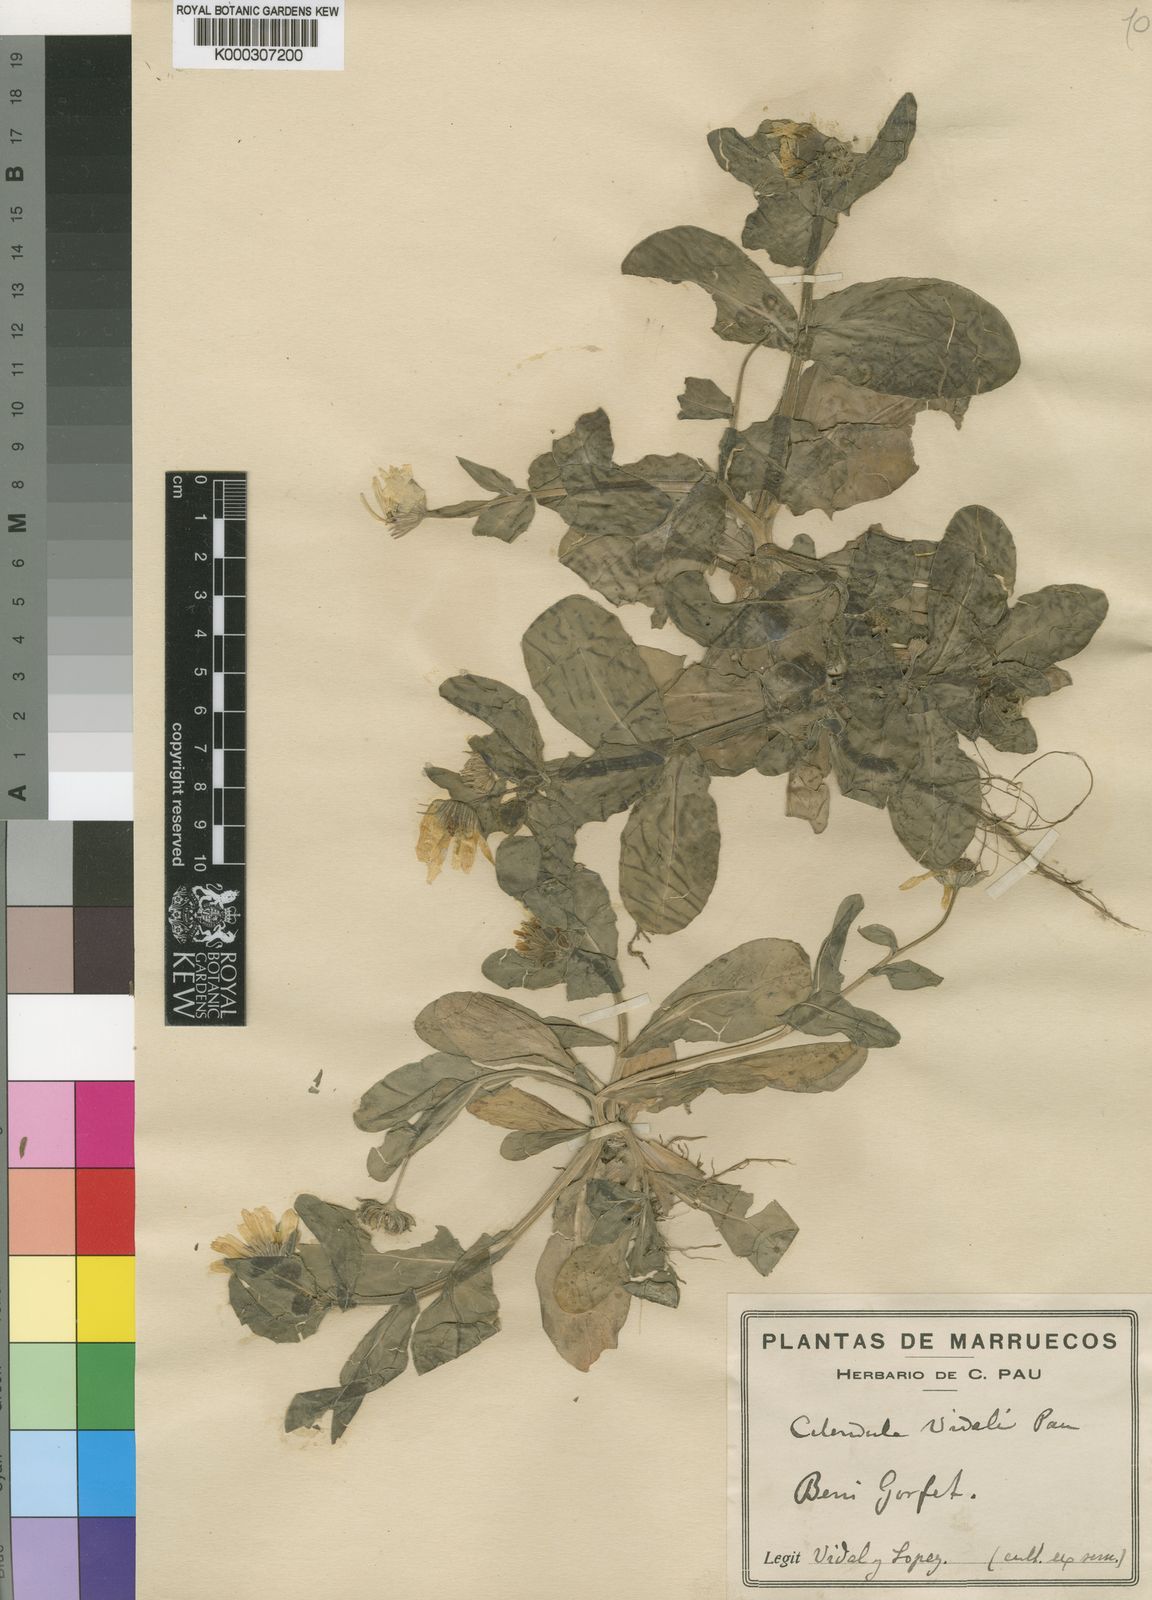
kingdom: Plantae
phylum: Tracheophyta
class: Magnoliopsida
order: Asterales
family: Asteraceae
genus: Calendula
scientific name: Calendula
